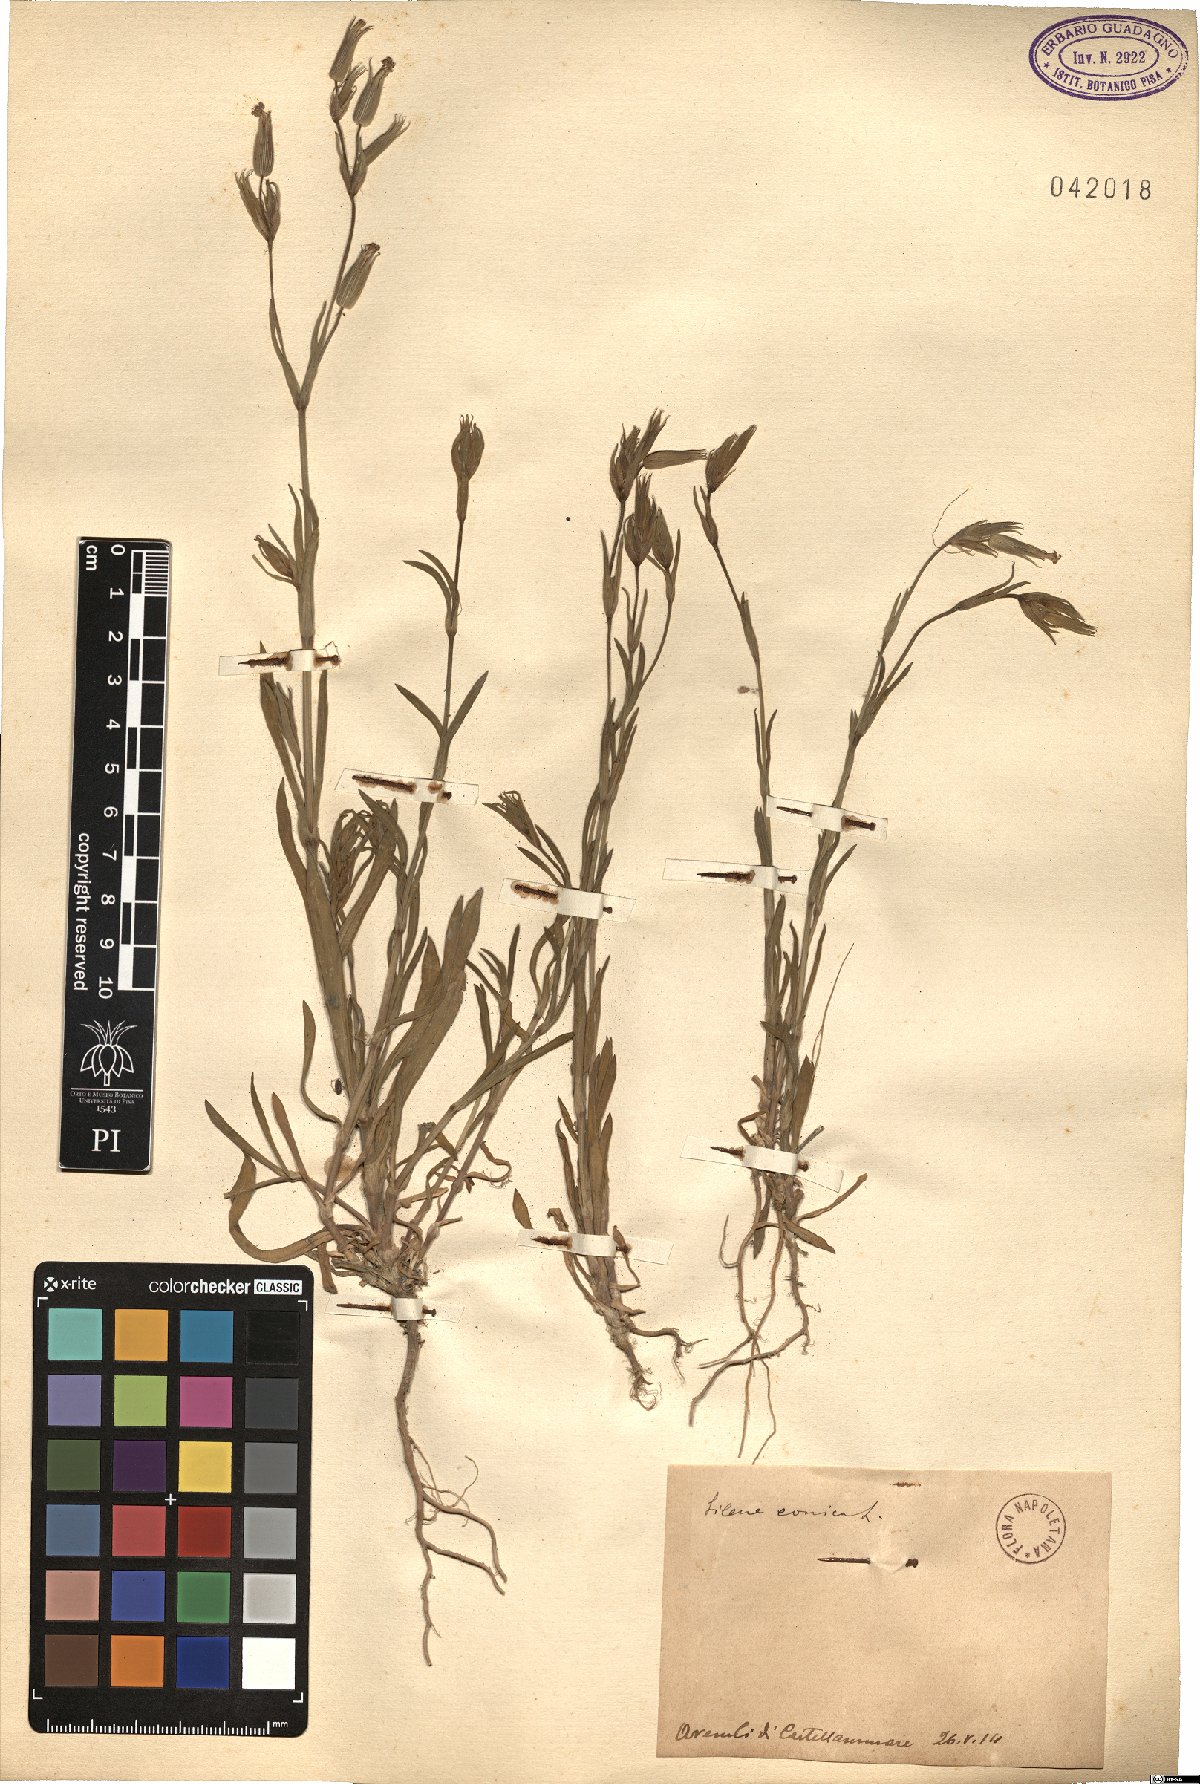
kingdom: Plantae
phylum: Tracheophyta
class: Magnoliopsida
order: Caryophyllales
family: Caryophyllaceae
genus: Silene
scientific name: Silene conica
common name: Sand catchfly
